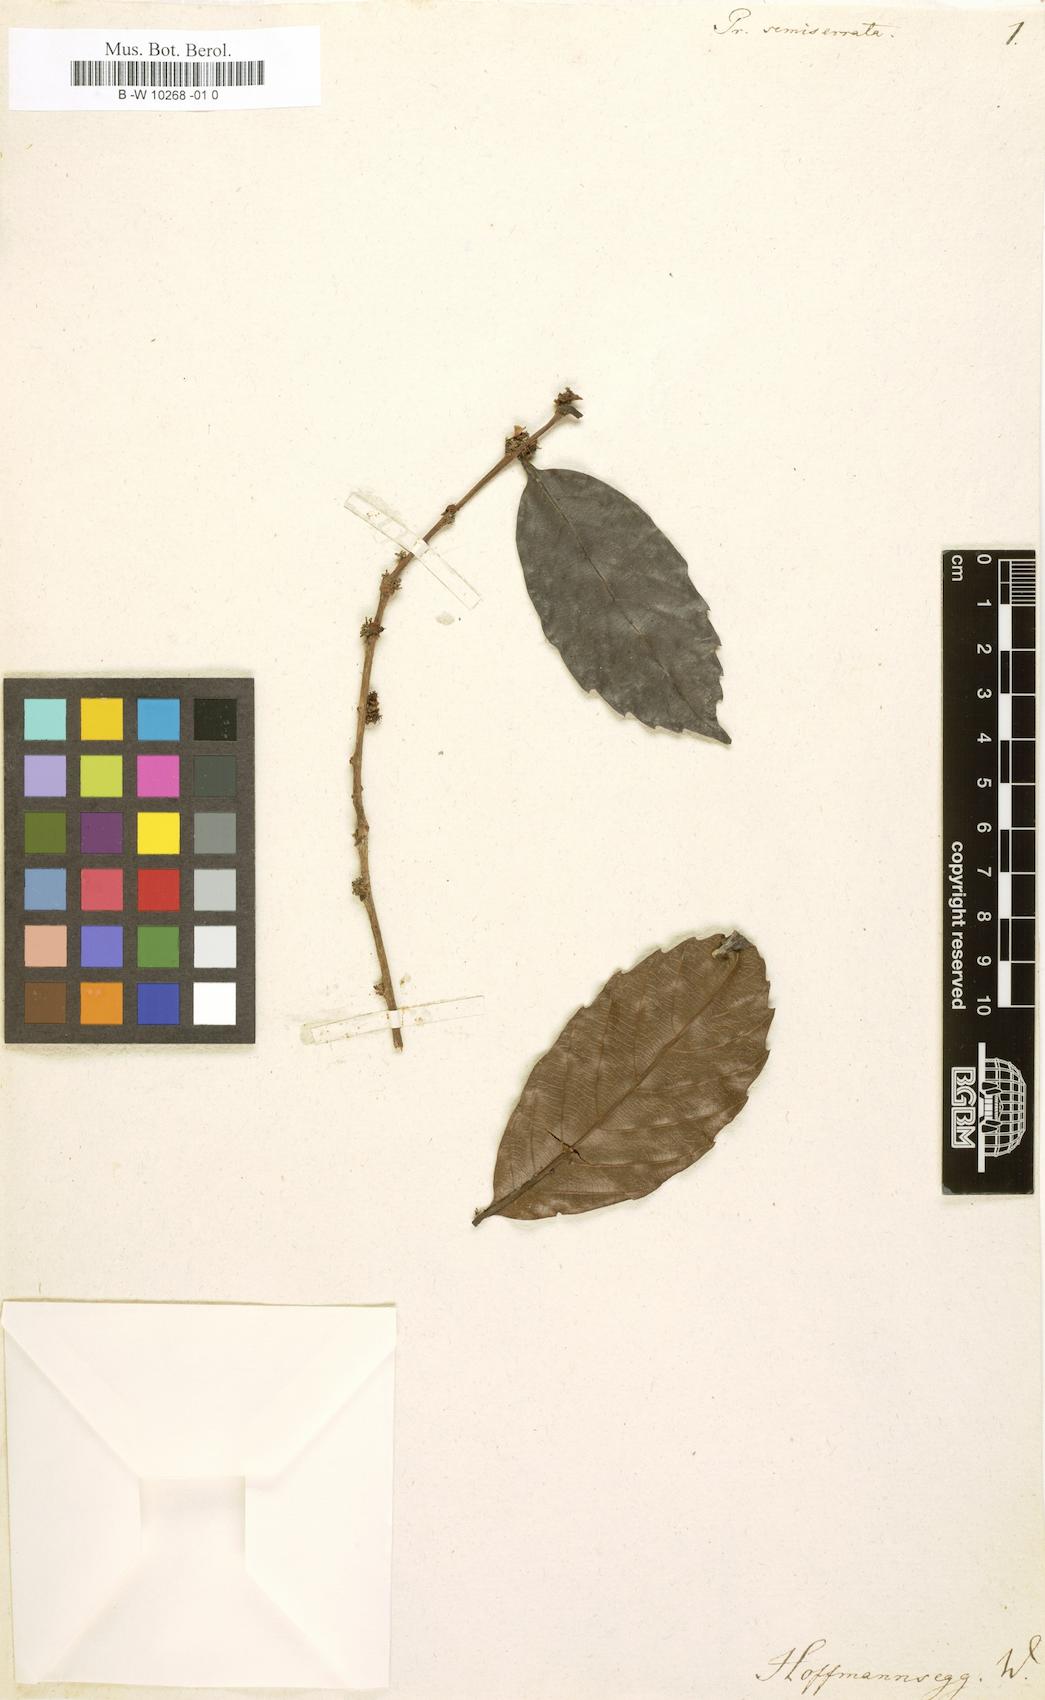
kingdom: Plantae
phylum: Tracheophyta
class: Magnoliopsida
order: Malpighiales
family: Salicaceae
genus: Prockia
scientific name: Prockia
